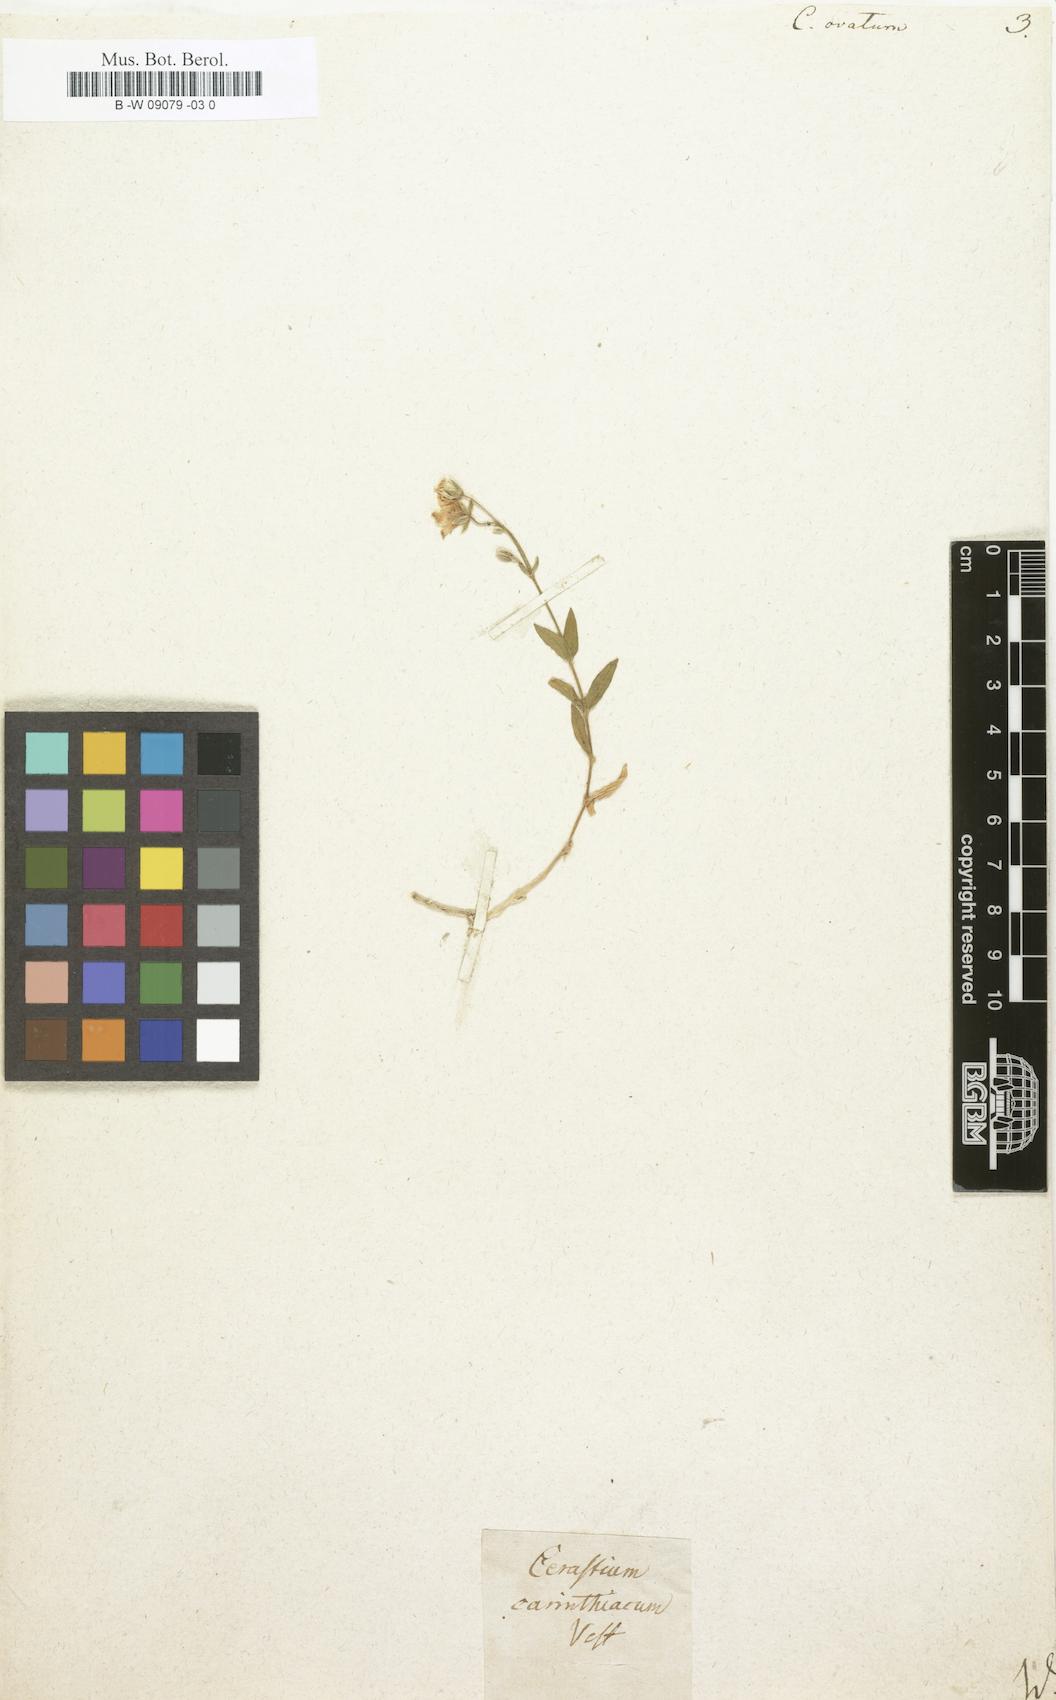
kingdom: Plantae
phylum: Tracheophyta
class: Magnoliopsida
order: Caryophyllales
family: Caryophyllaceae
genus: Cerastium
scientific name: Cerastium arvense
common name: Field mouse-ear
